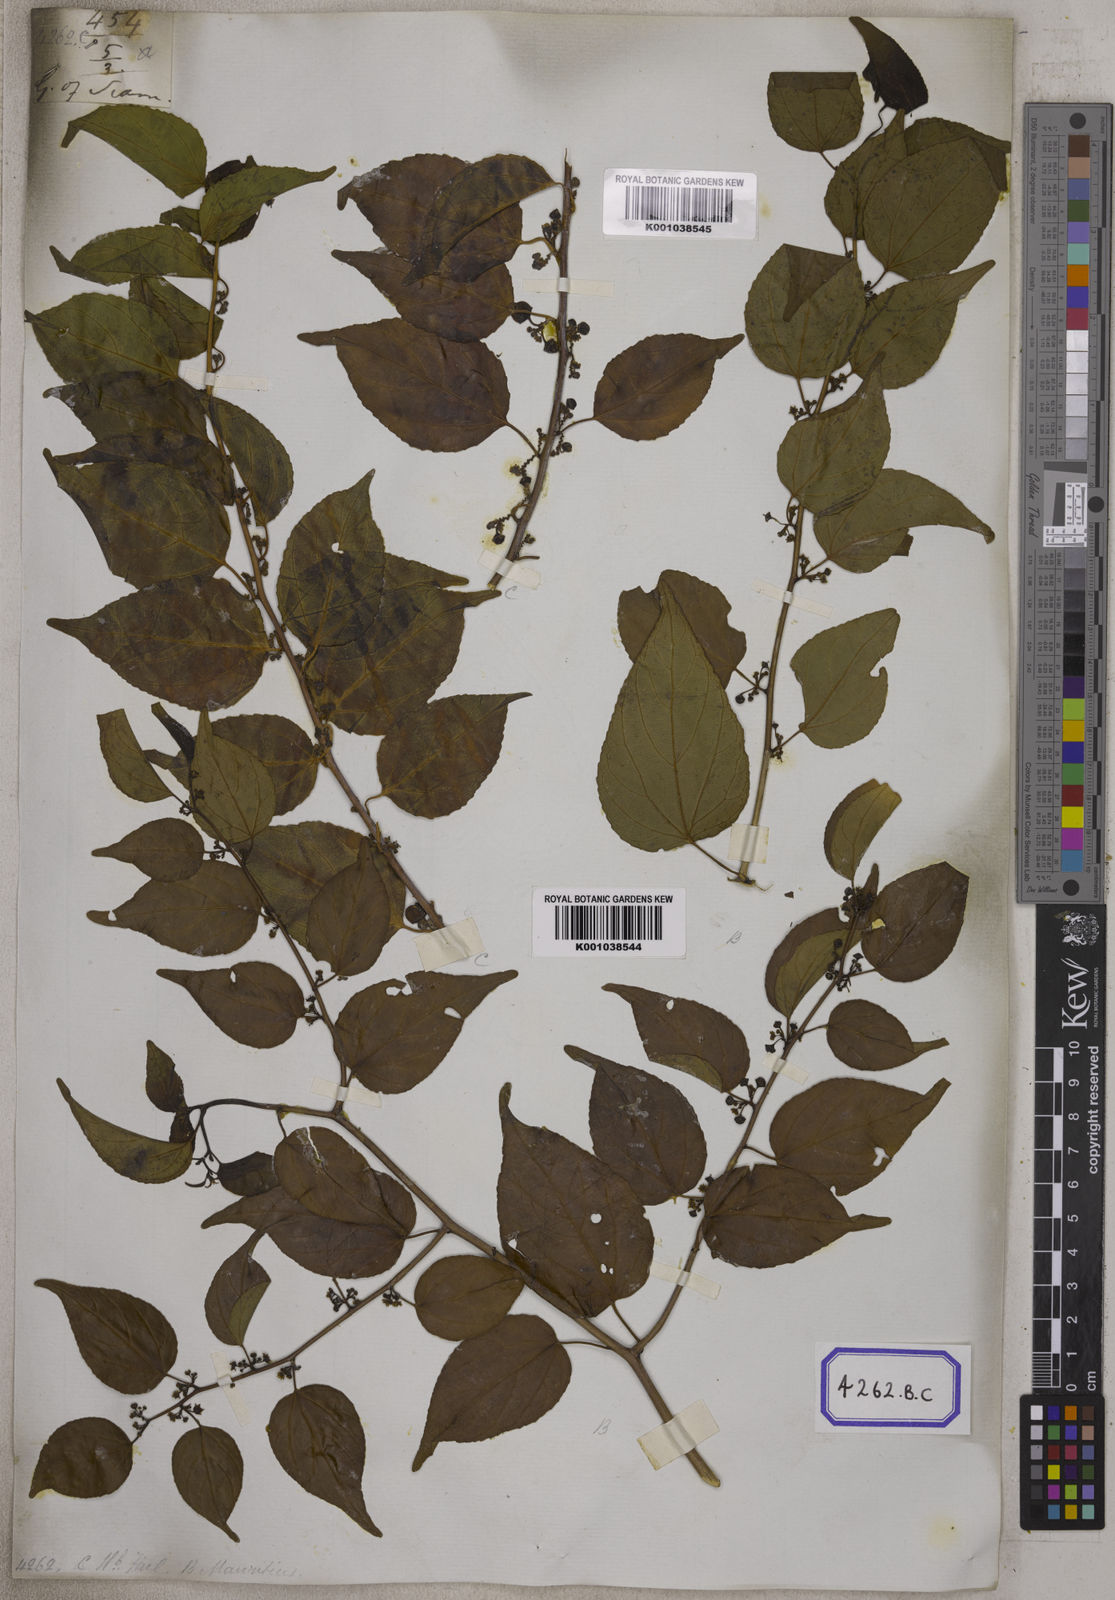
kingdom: Plantae
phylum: Tracheophyta
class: Magnoliopsida
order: Rosales
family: Rhamnaceae
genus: Colubrina
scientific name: Colubrina asiatica
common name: Asian nakedwood
